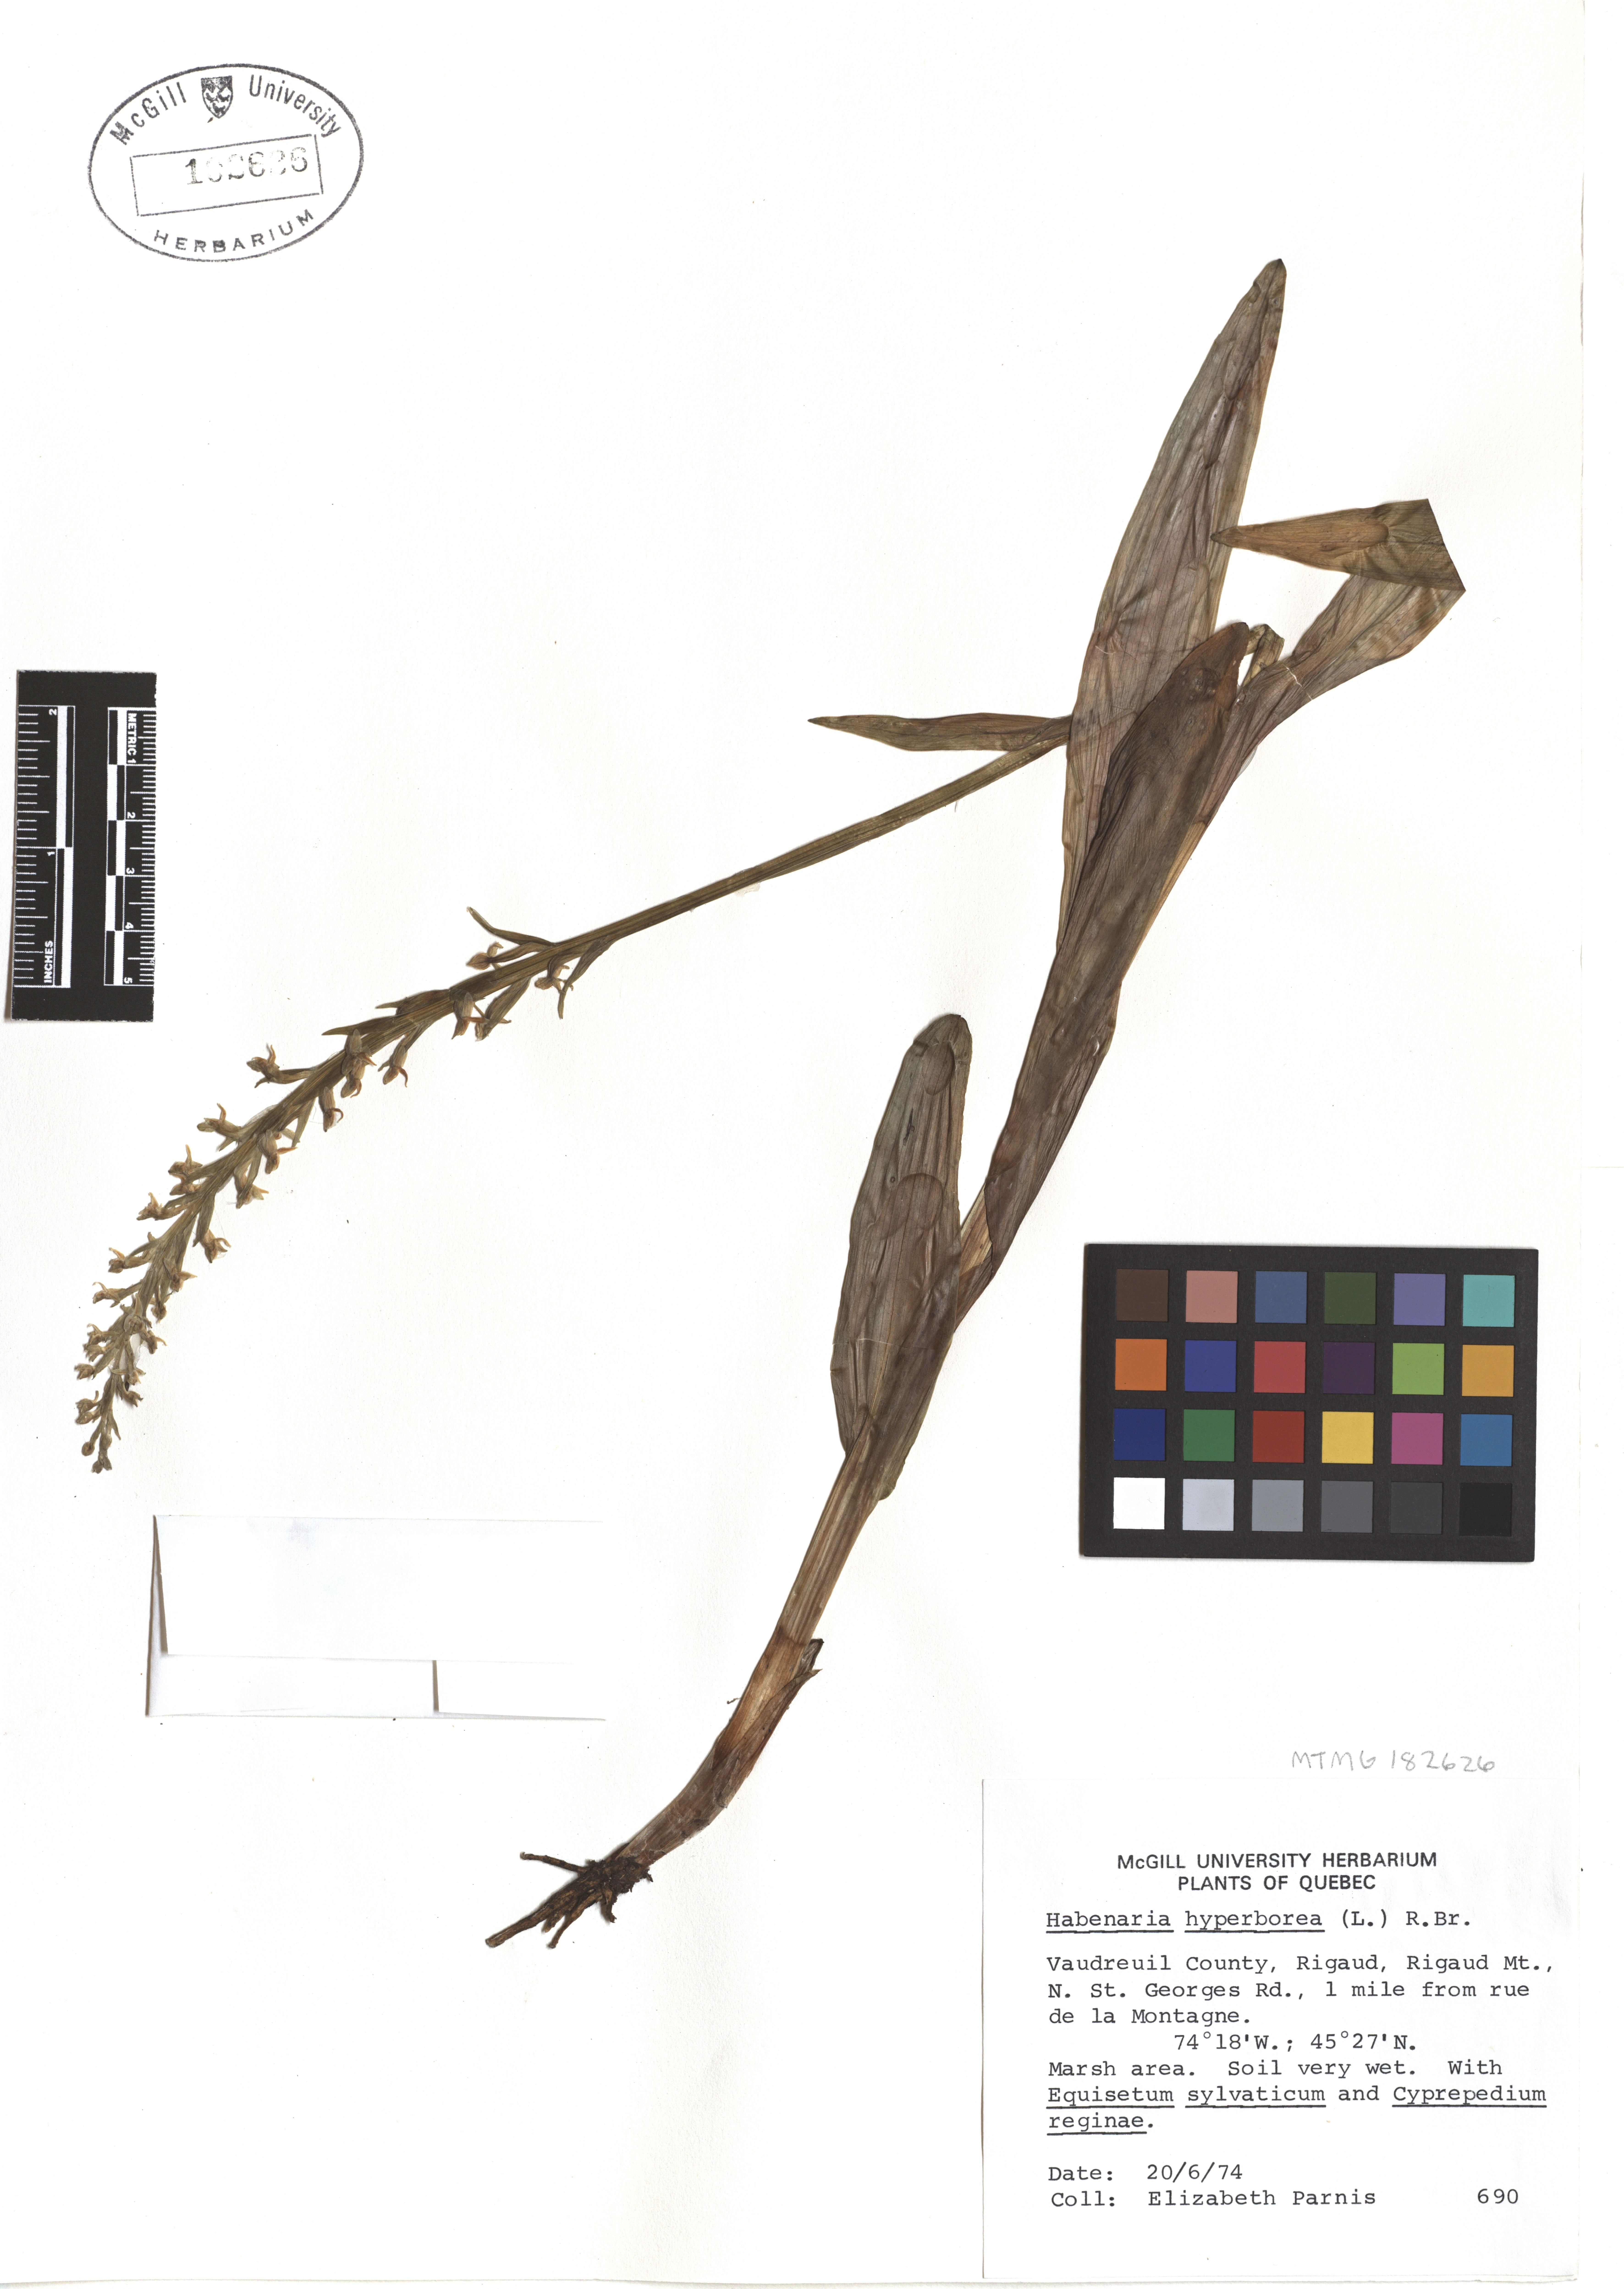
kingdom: Plantae
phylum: Tracheophyta
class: Liliopsida
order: Asparagales
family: Orchidaceae
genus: Platanthera
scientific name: Platanthera hyperborea
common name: Northern green orchid
